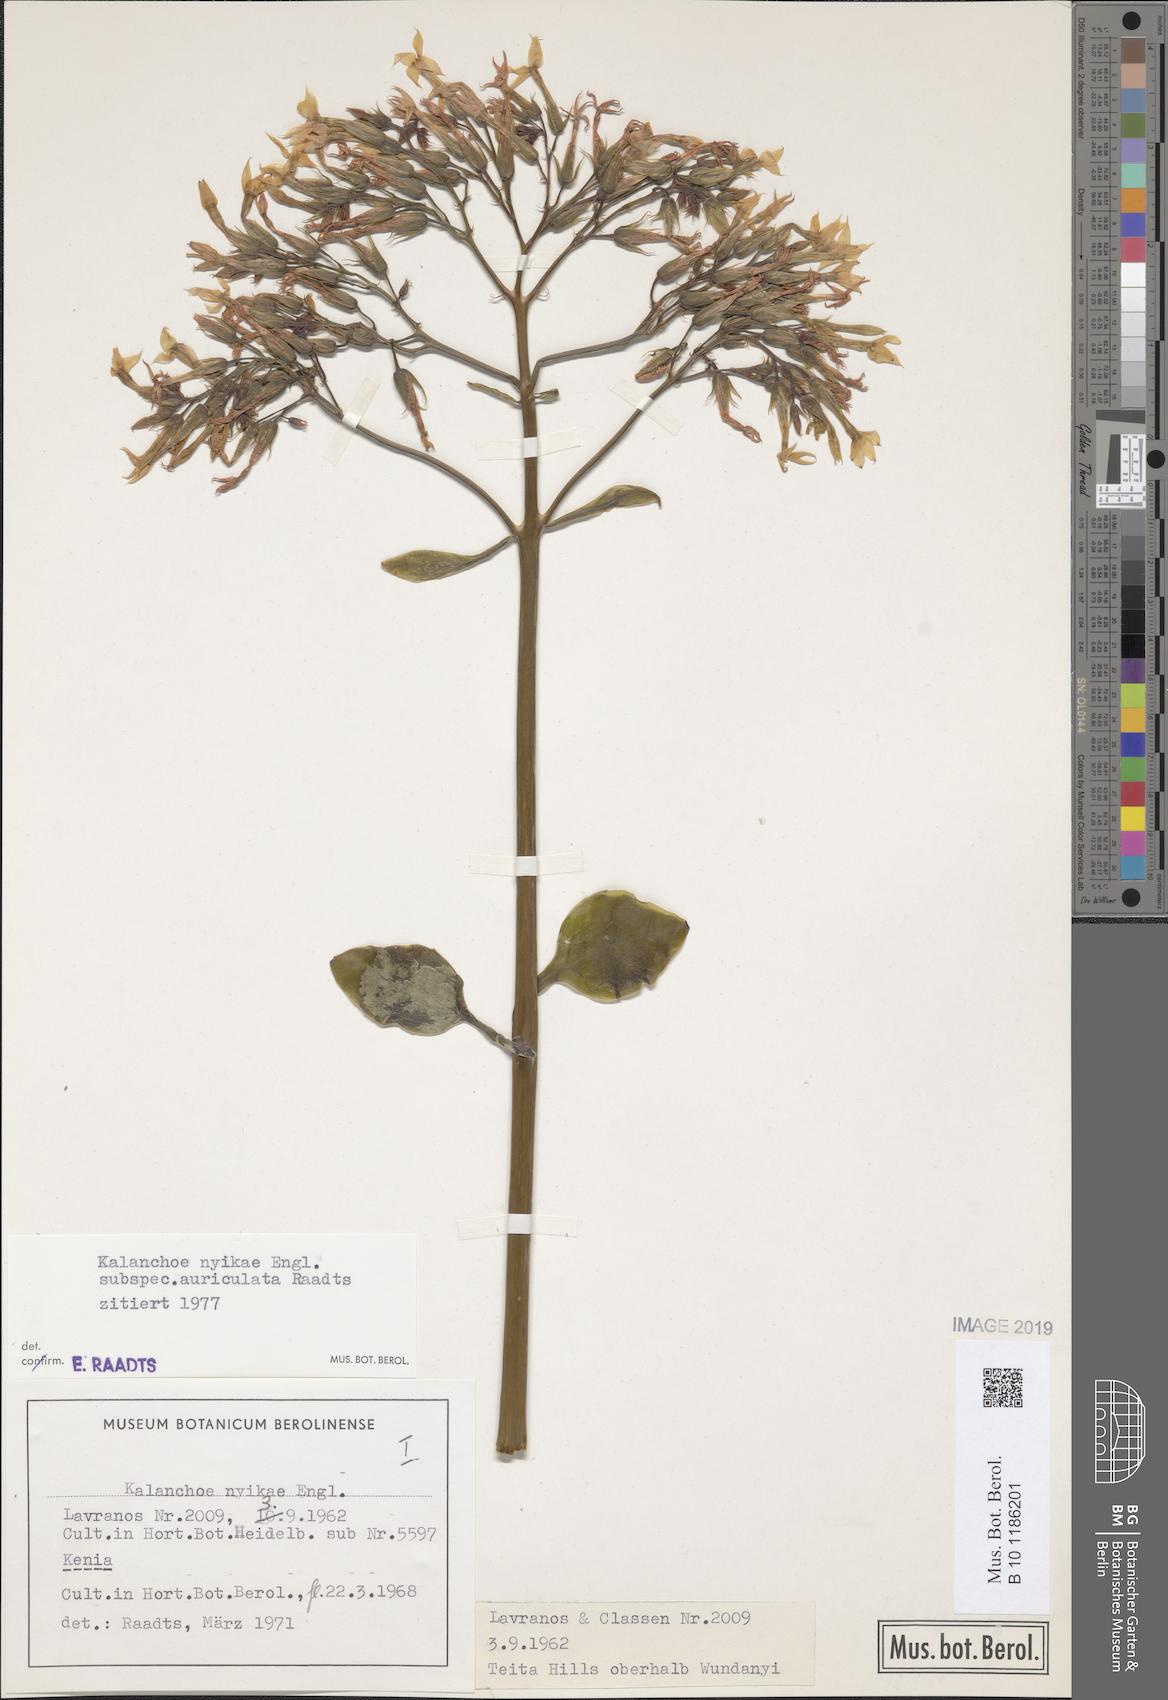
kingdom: Plantae
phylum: Tracheophyta
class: Magnoliopsida
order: Saxifragales
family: Crassulaceae
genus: Kalanchoe
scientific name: Kalanchoe auriculata
